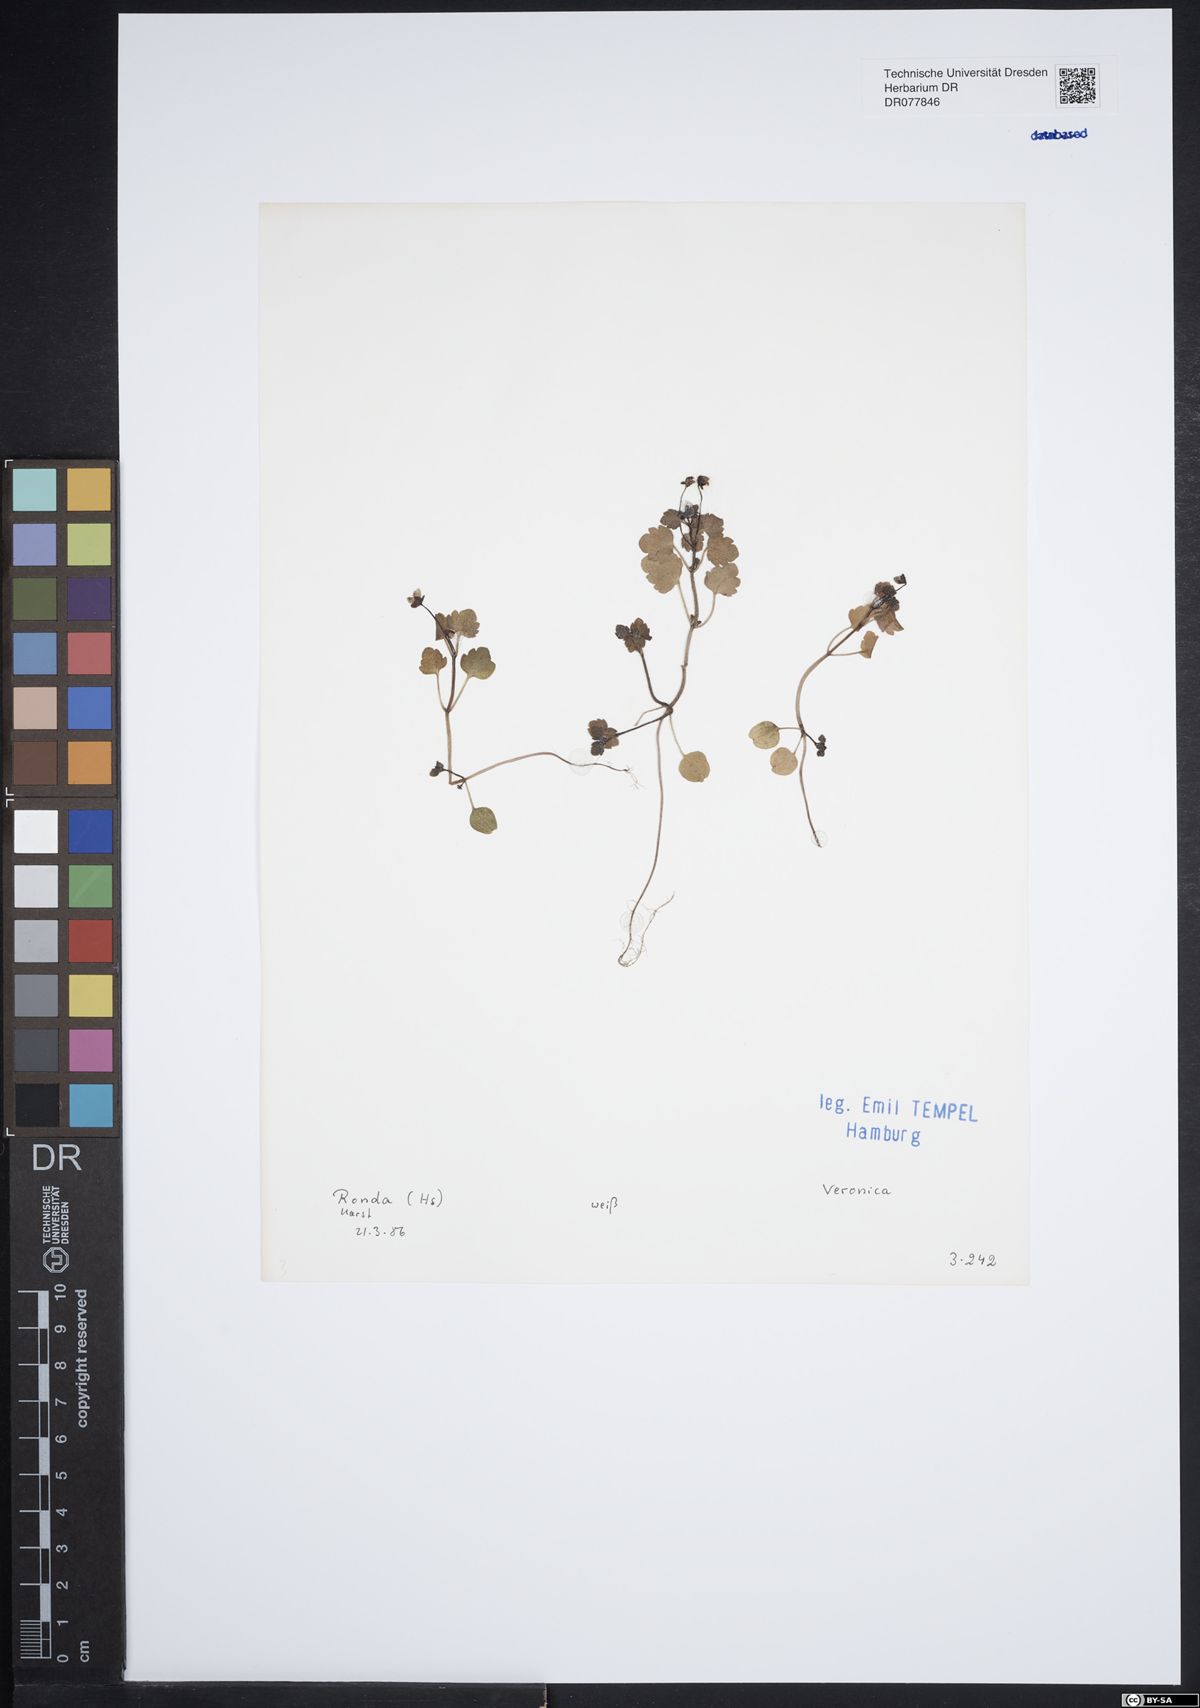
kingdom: Plantae
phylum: Tracheophyta
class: Magnoliopsida
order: Lamiales
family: Plantaginaceae
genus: Veronica
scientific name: Veronica
